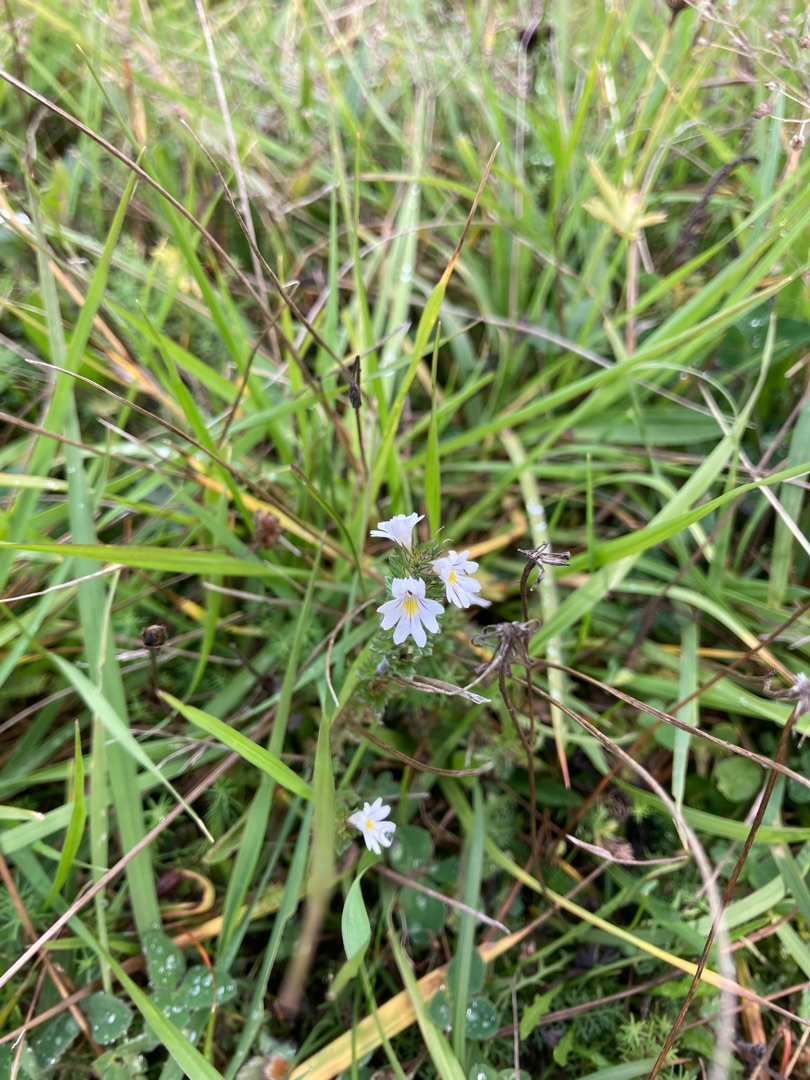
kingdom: Plantae
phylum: Tracheophyta
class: Magnoliopsida
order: Lamiales
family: Orobanchaceae
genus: Euphrasia
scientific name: Euphrasia nemorosa
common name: Kort øjentrøst
